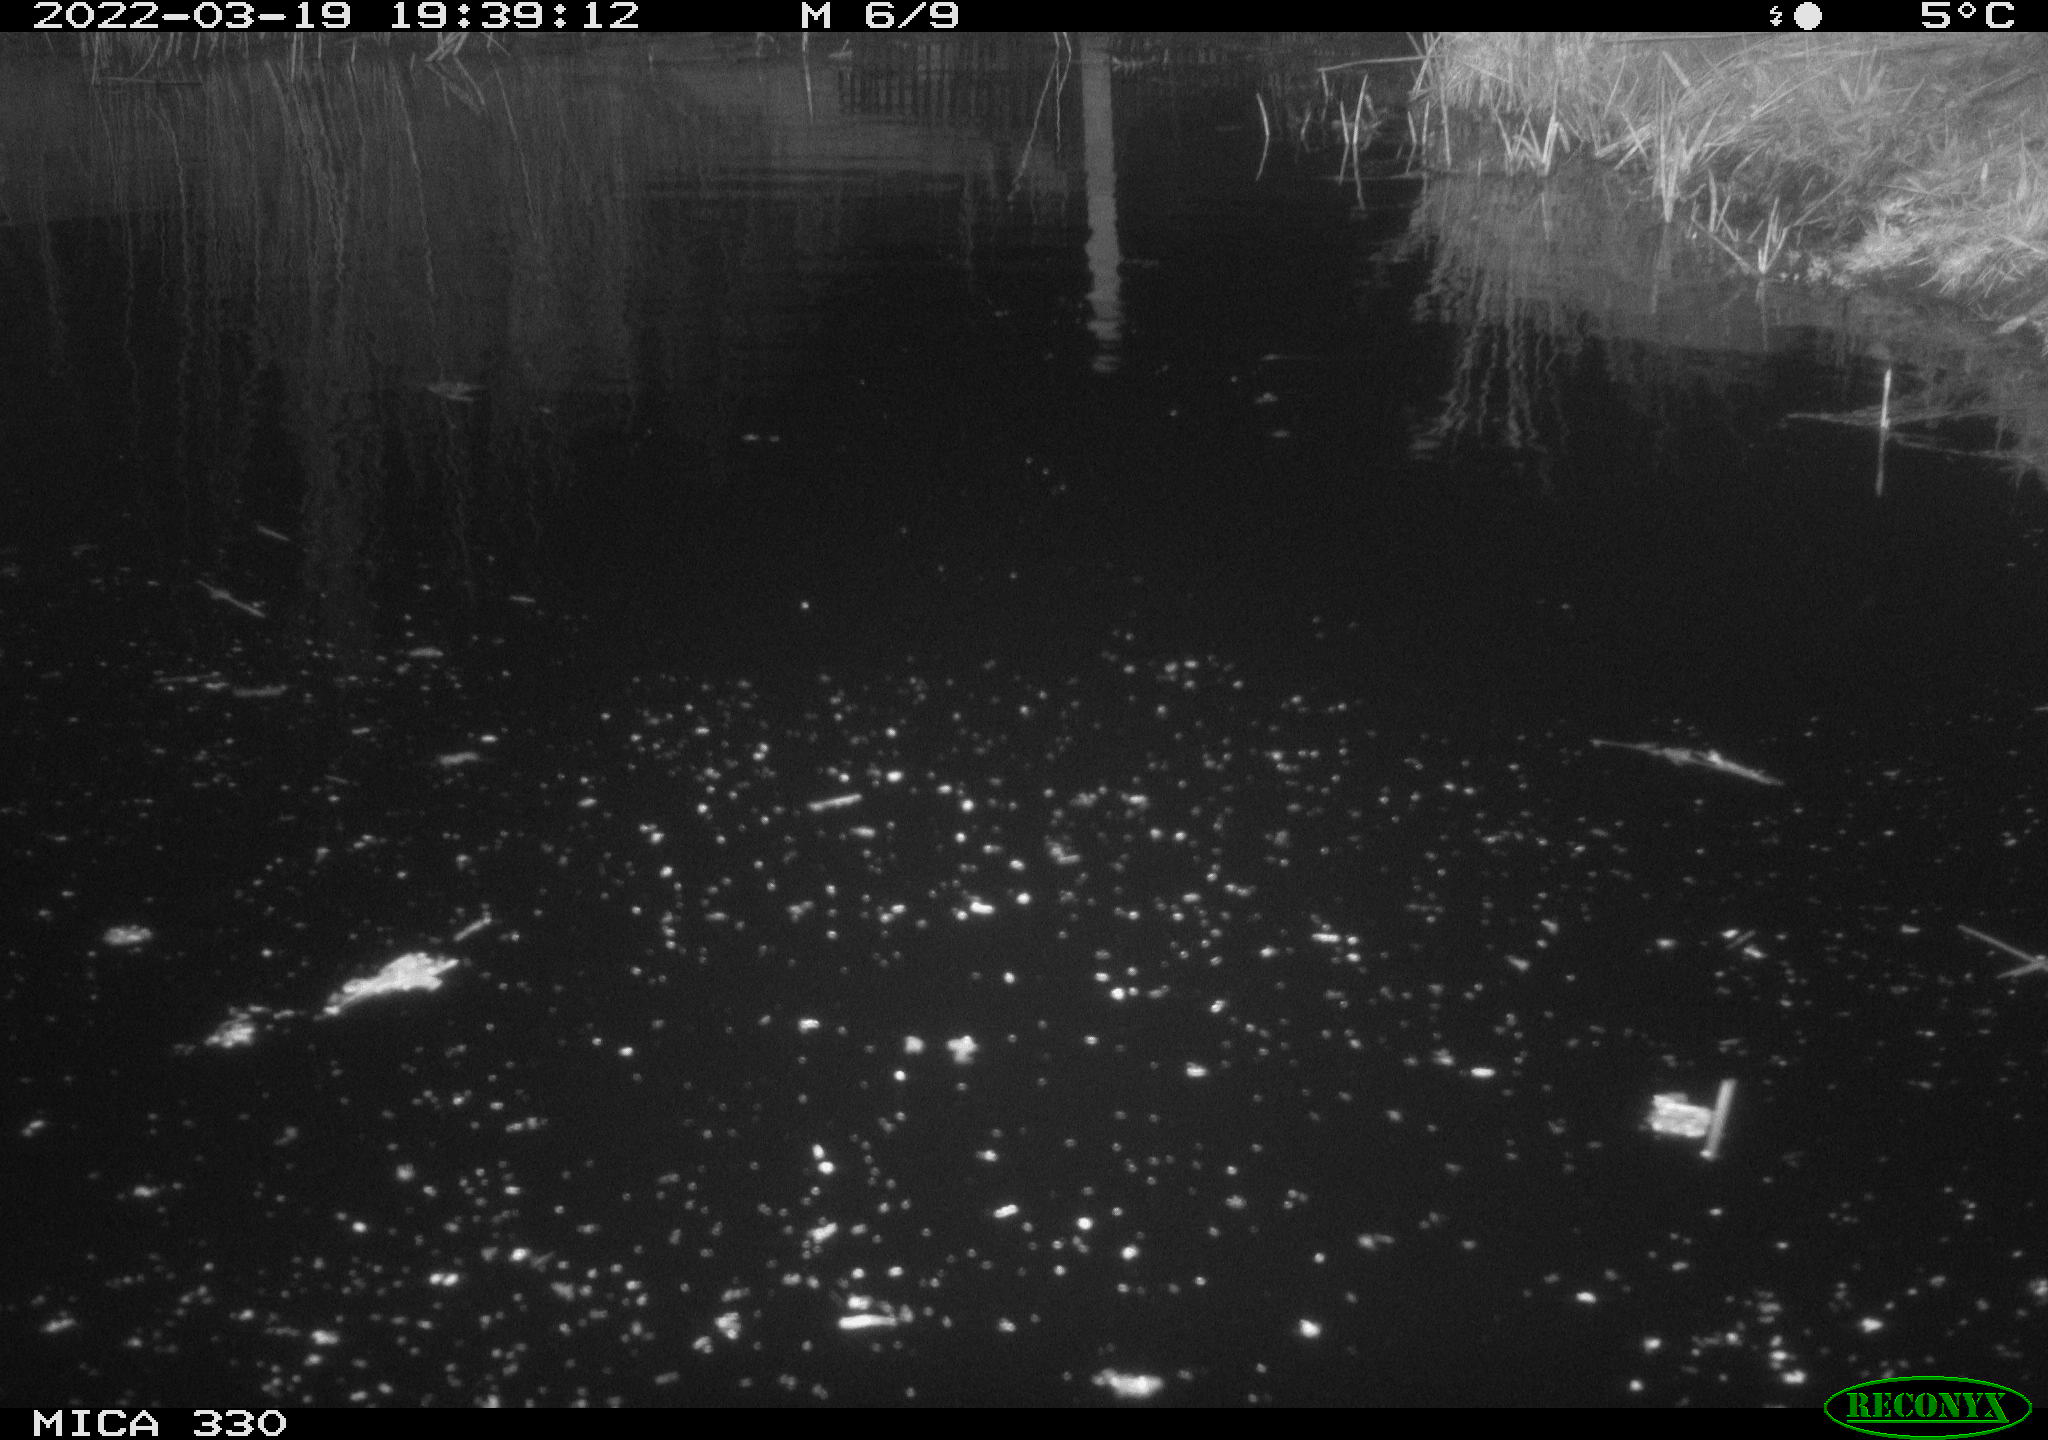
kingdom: Animalia
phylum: Chordata
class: Aves
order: Gruiformes
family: Rallidae
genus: Gallinula
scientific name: Gallinula chloropus
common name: Common moorhen
